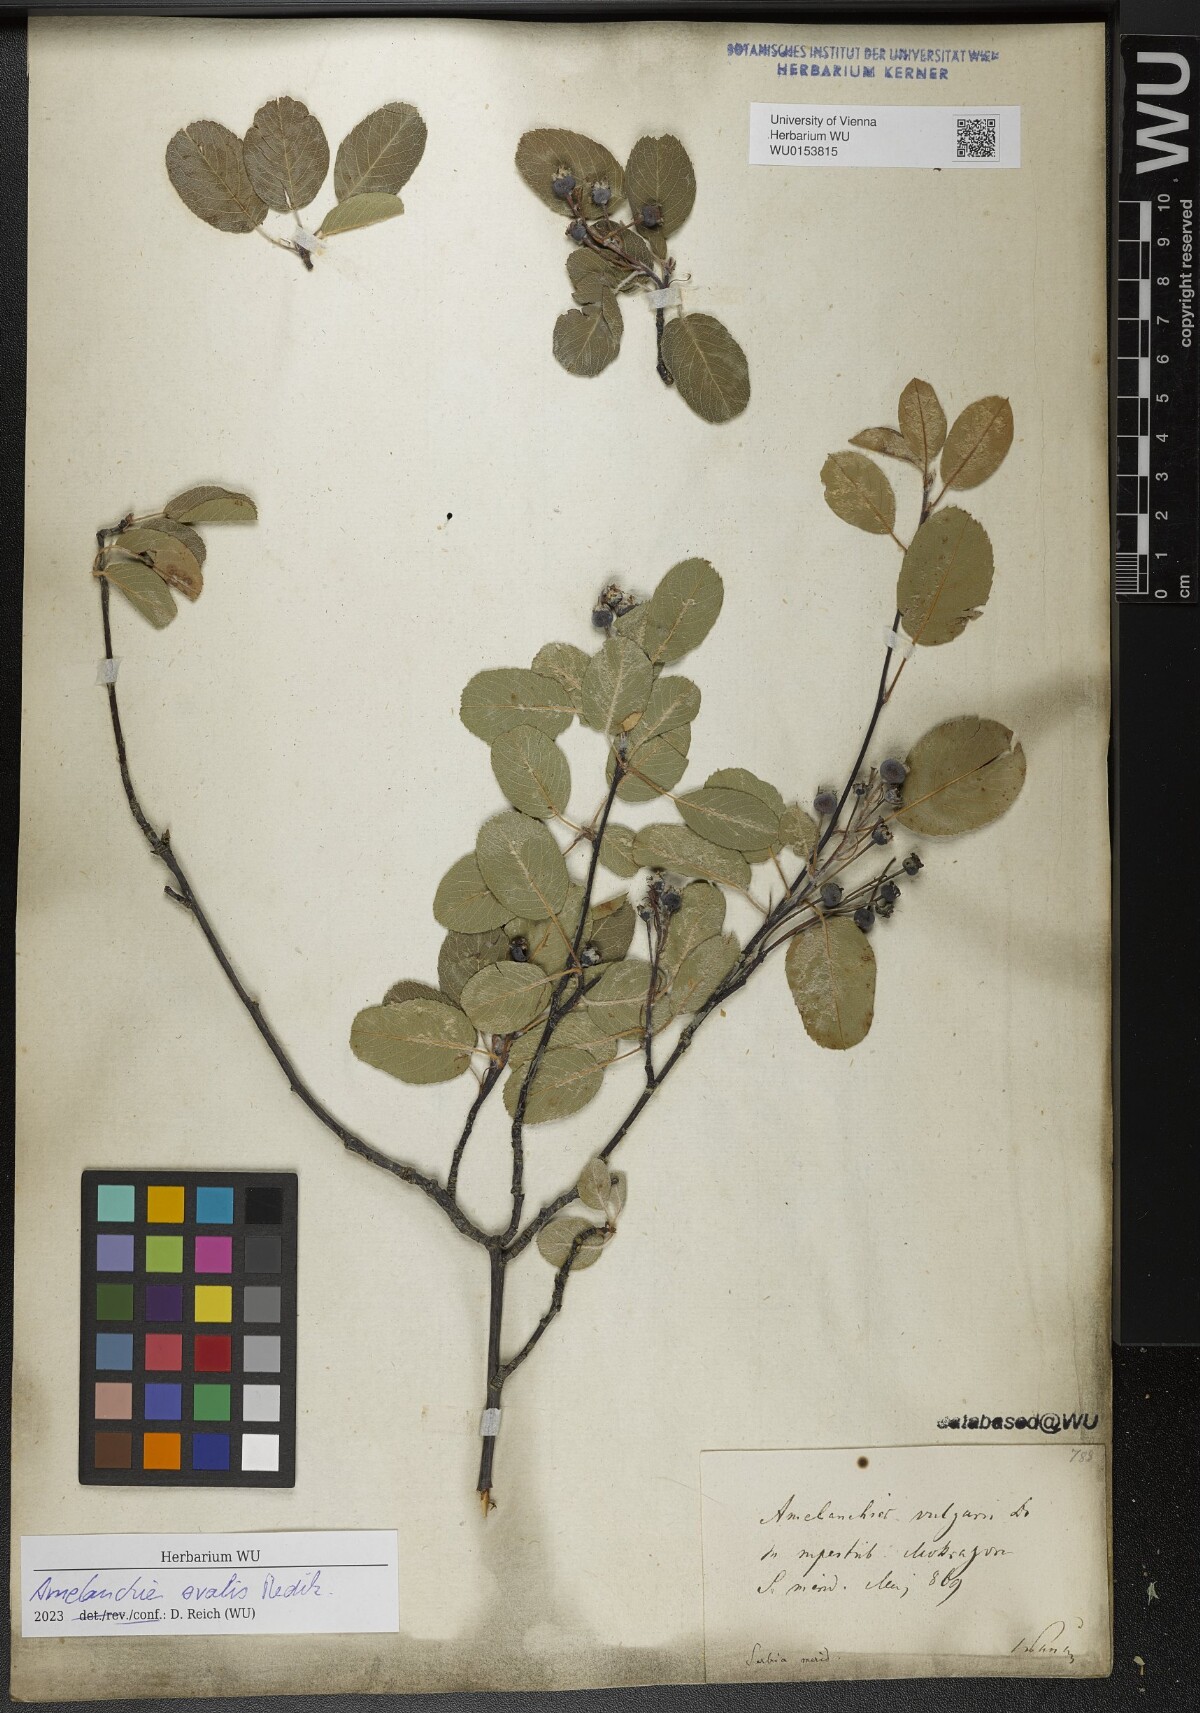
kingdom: Plantae
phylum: Tracheophyta
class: Magnoliopsida
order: Rosales
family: Rosaceae
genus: Amelanchier
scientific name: Amelanchier ovalis
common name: Serviceberry
